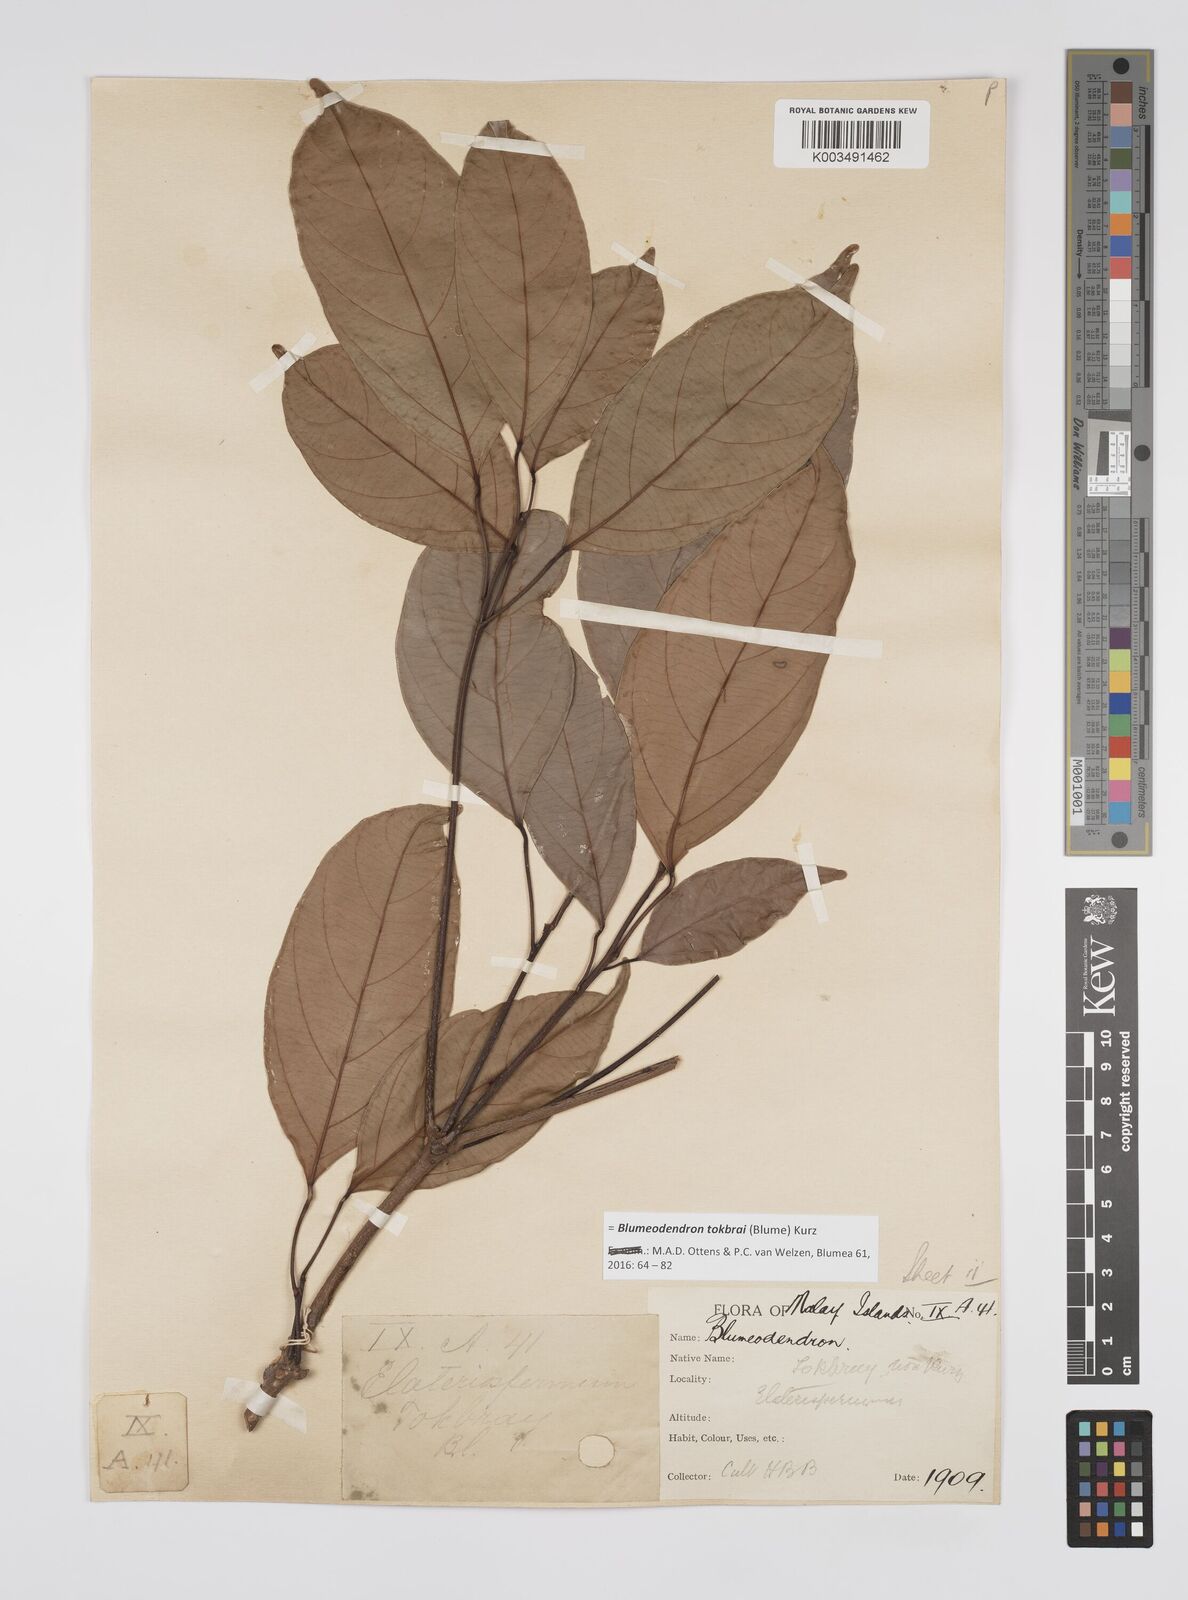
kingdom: Plantae
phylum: Tracheophyta
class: Magnoliopsida
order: Malpighiales
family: Euphorbiaceae
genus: Blumeodendron
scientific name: Blumeodendron tokbrai
